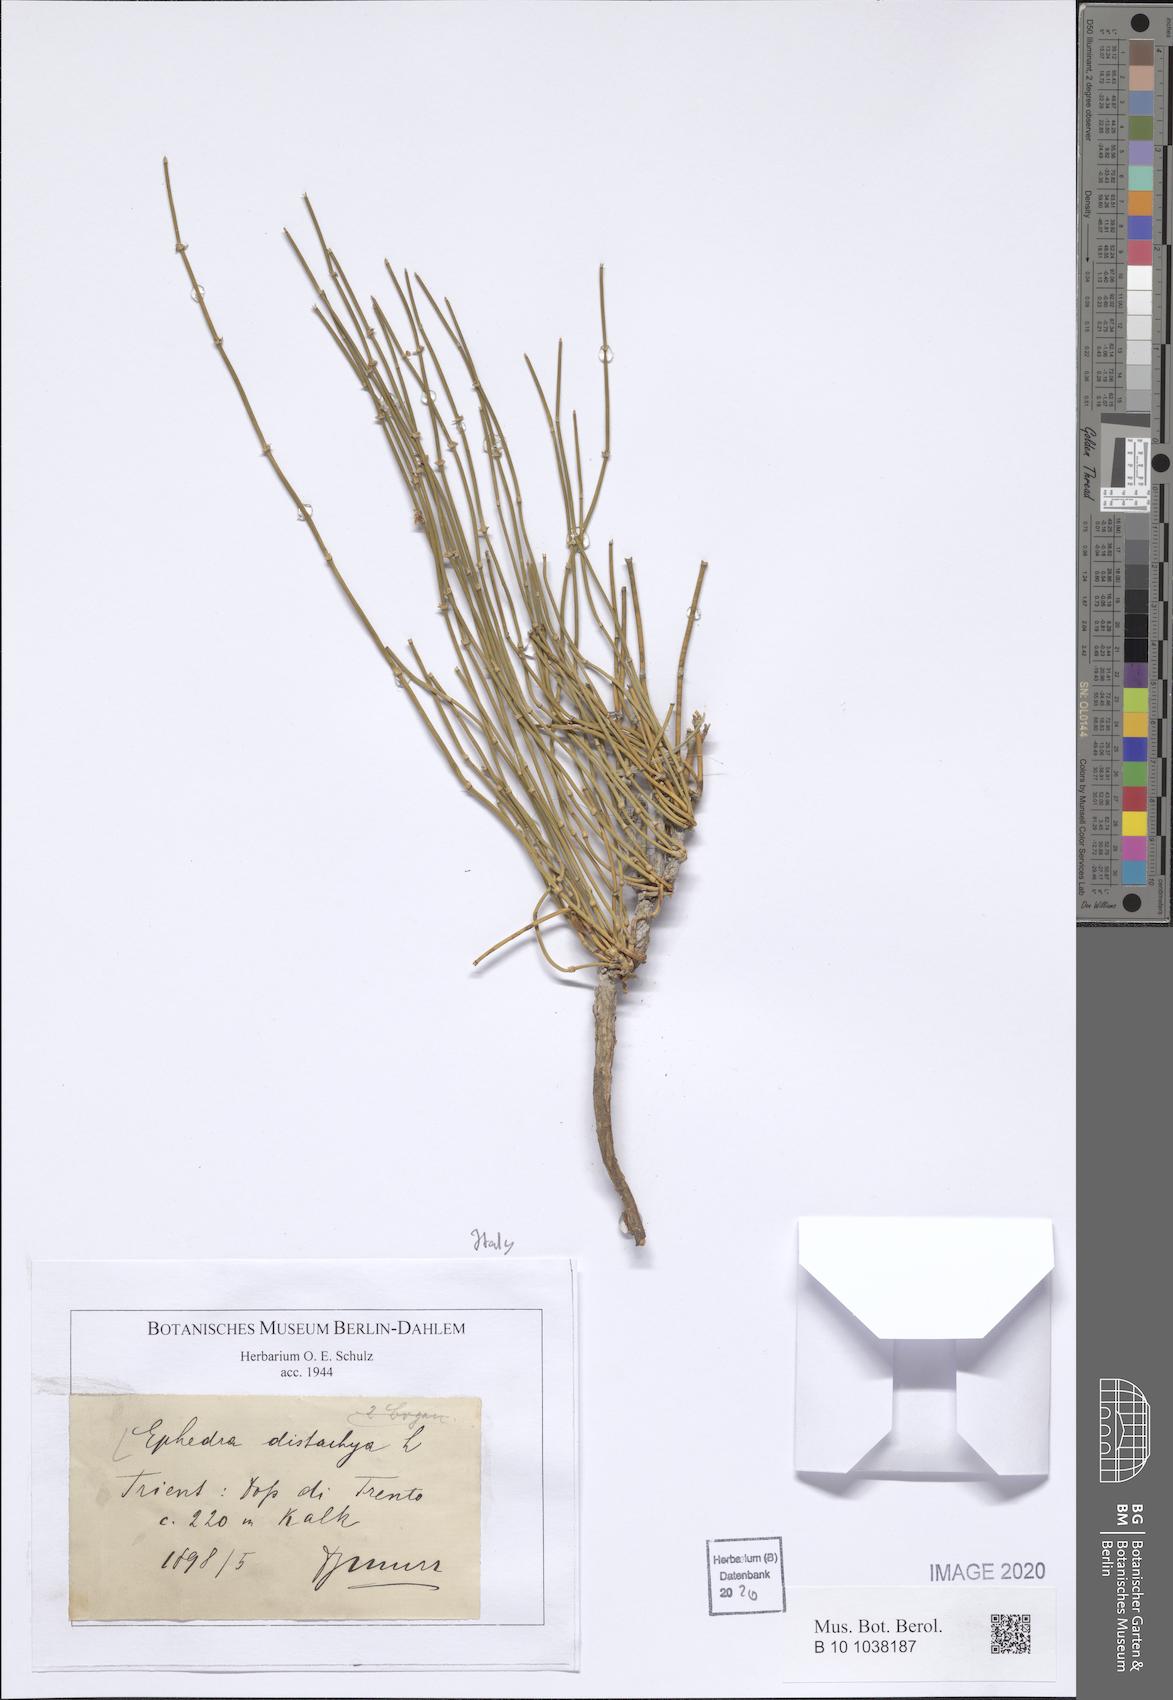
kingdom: Plantae
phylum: Tracheophyta
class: Gnetopsida
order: Ephedrales
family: Ephedraceae
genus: Ephedra
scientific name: Ephedra distachya
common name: Sea grape
